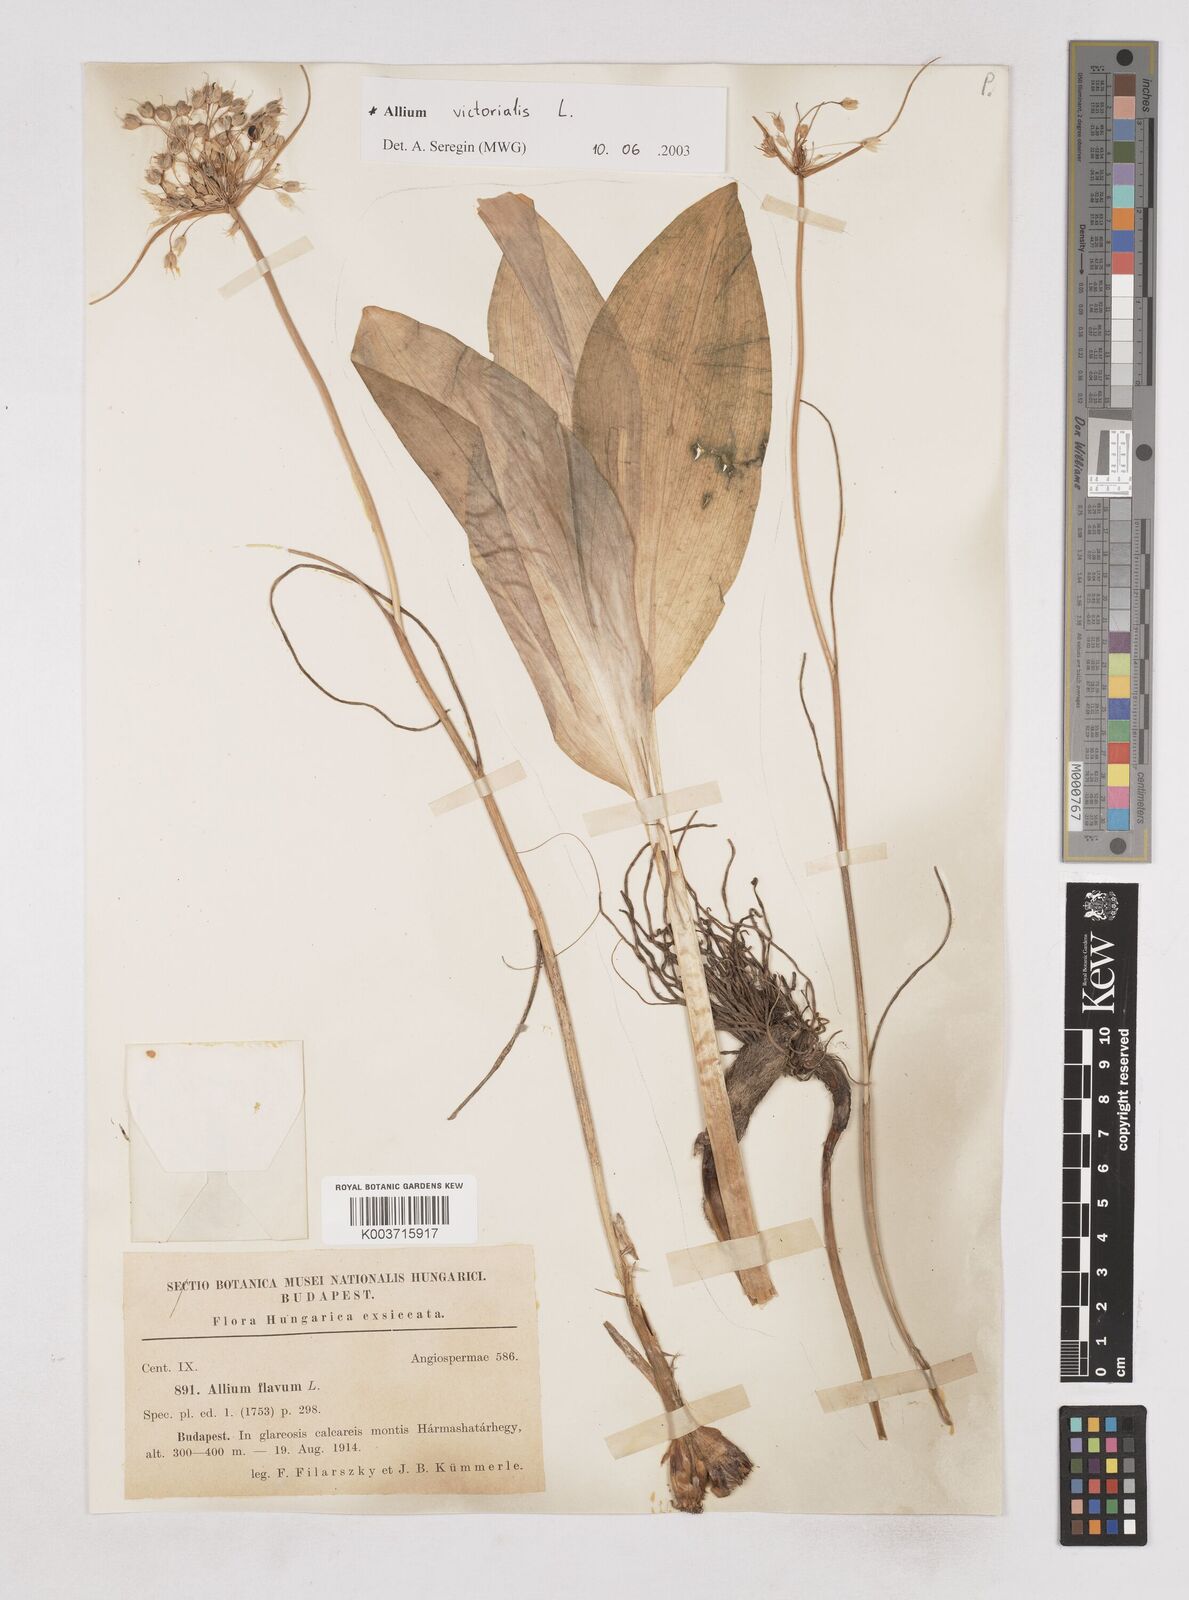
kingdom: Plantae
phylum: Tracheophyta
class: Liliopsida
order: Asparagales
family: Amaryllidaceae
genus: Allium
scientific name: Allium flavum
